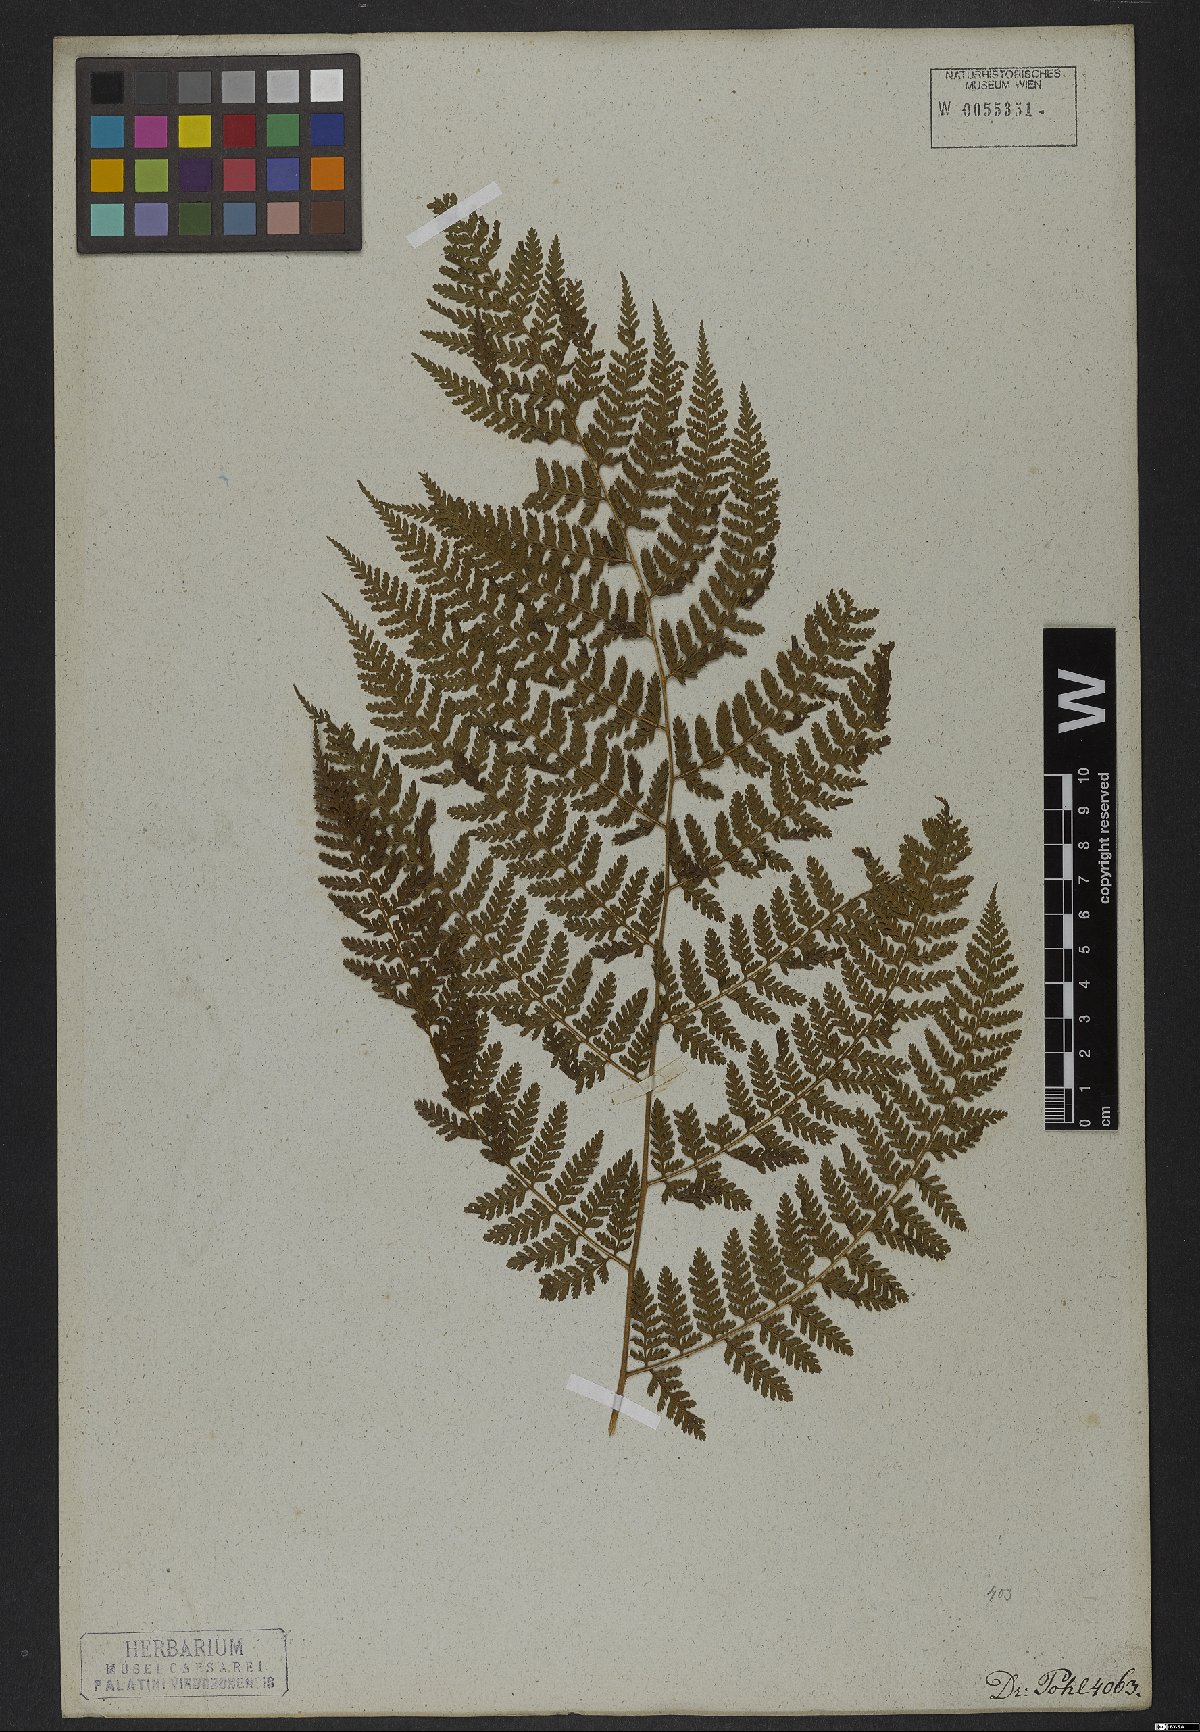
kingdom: Plantae
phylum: Tracheophyta
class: Polypodiopsida
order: Polypodiales
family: Dennstaedtiaceae
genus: Dennstaedtia
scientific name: Dennstaedtia cicutaria
